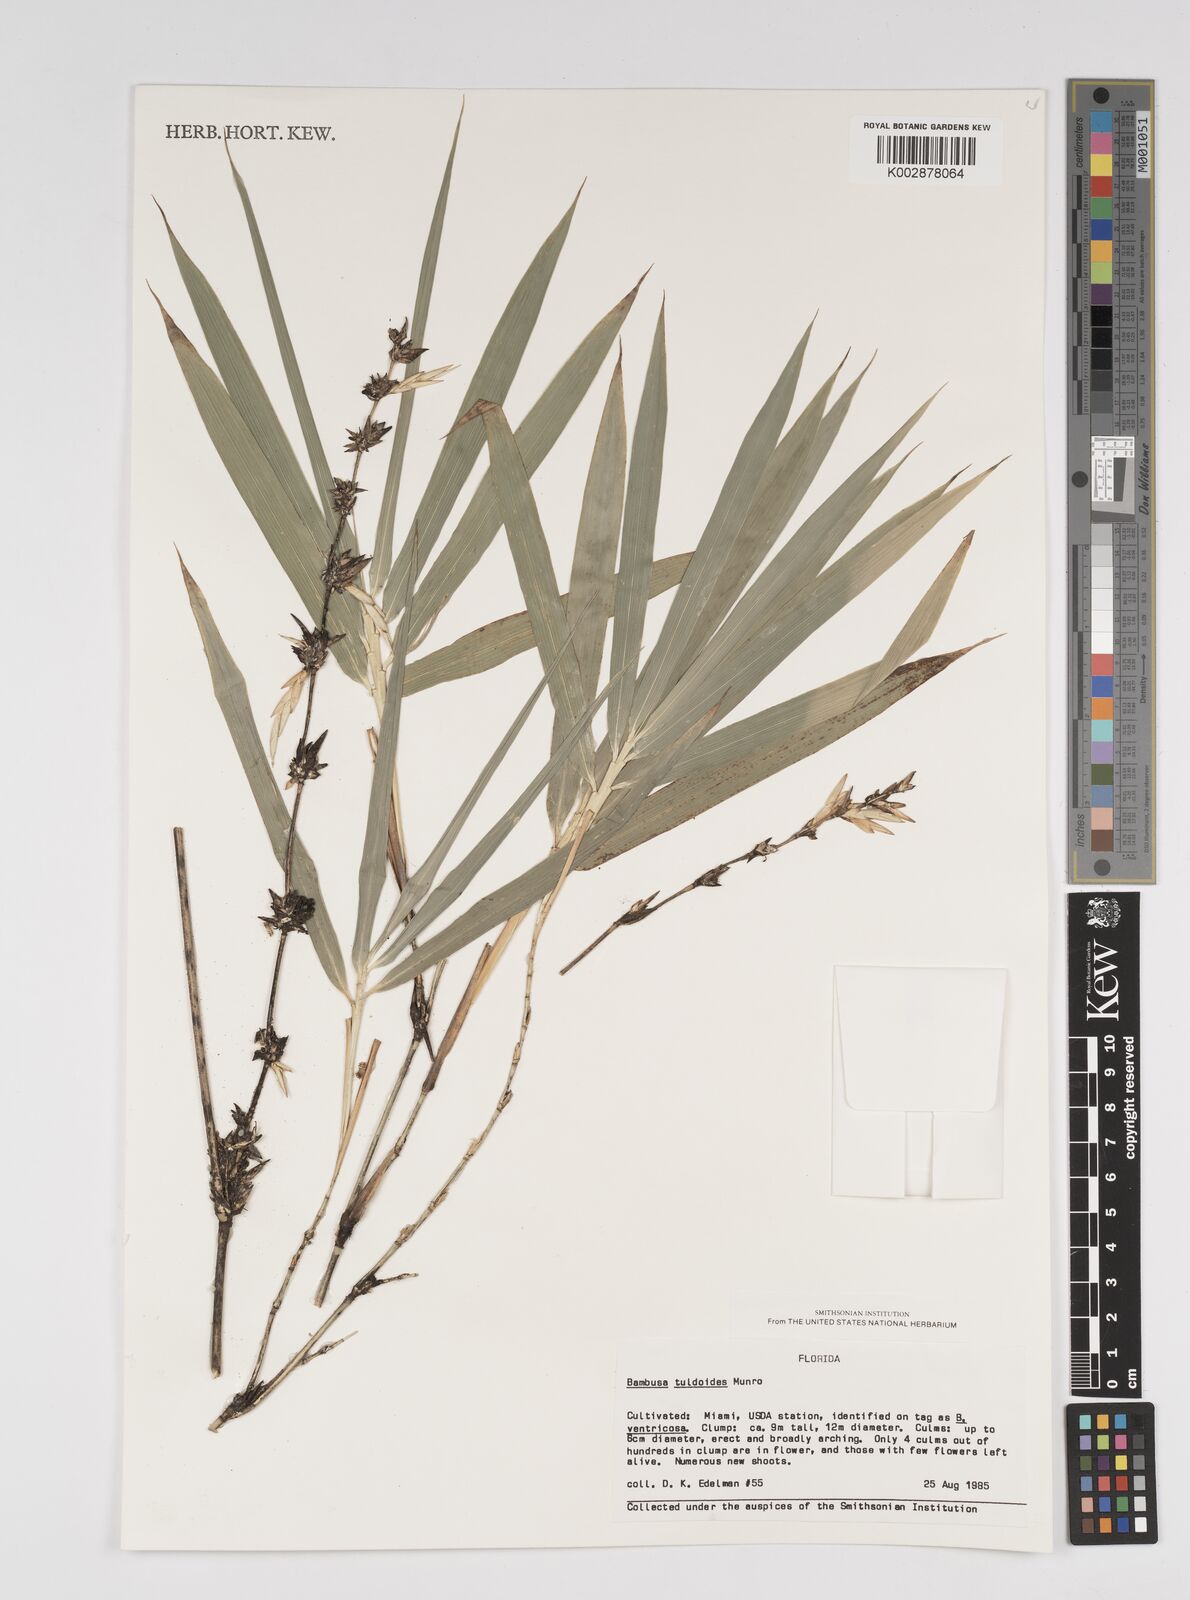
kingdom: Plantae
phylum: Tracheophyta
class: Liliopsida
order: Poales
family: Poaceae
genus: Bambusa
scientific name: Bambusa tuldoides
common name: Verdant bamboo
